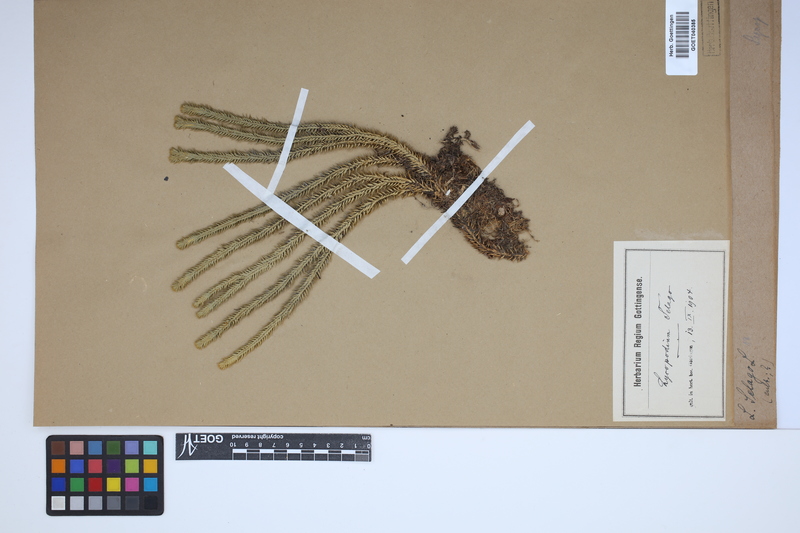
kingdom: Plantae
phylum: Tracheophyta
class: Lycopodiopsida
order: Lycopodiales
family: Lycopodiaceae
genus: Huperzia
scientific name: Huperzia selago
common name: Northern firmoss
